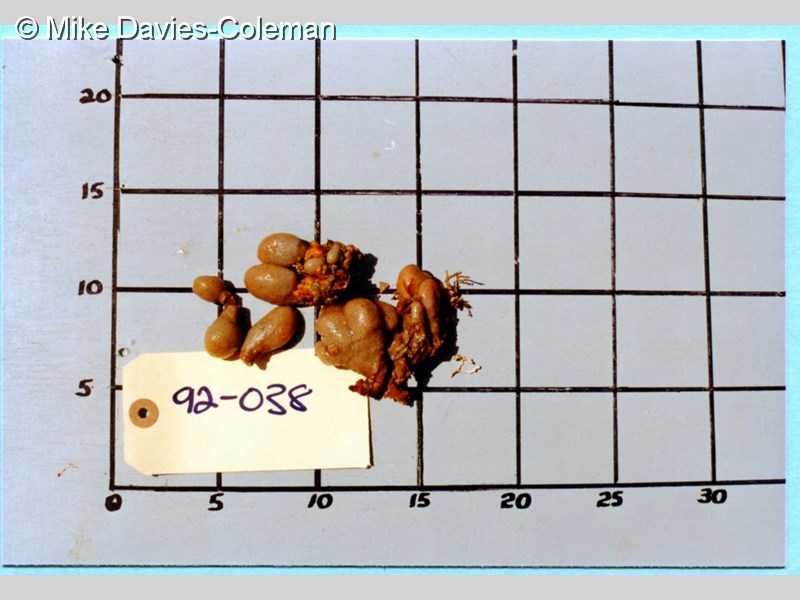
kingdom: Animalia
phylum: Chordata
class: Ascidiacea
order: Aplousobranchia
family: Pseudodistomidae
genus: Pseudodistoma
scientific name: Pseudodistoma africanum
